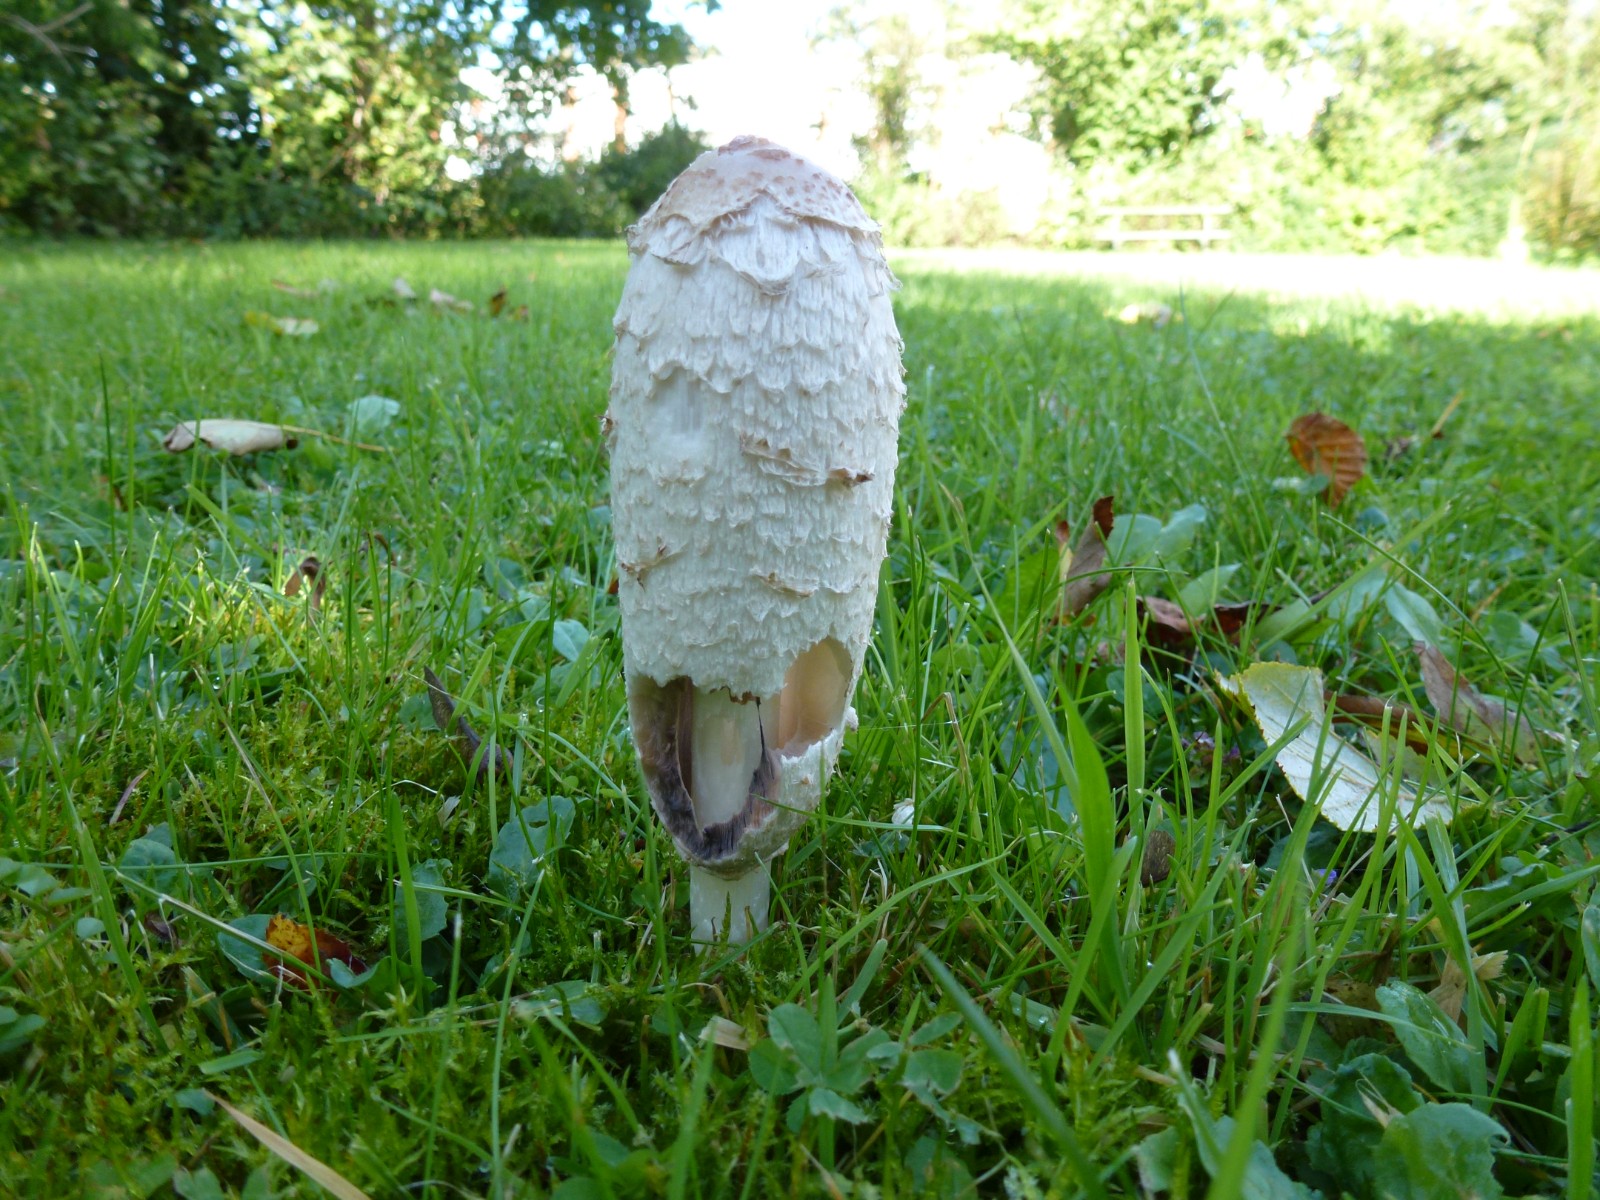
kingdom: Fungi
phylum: Basidiomycota
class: Agaricomycetes
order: Agaricales
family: Agaricaceae
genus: Coprinus
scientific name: Coprinus comatus
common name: stor parykhat
